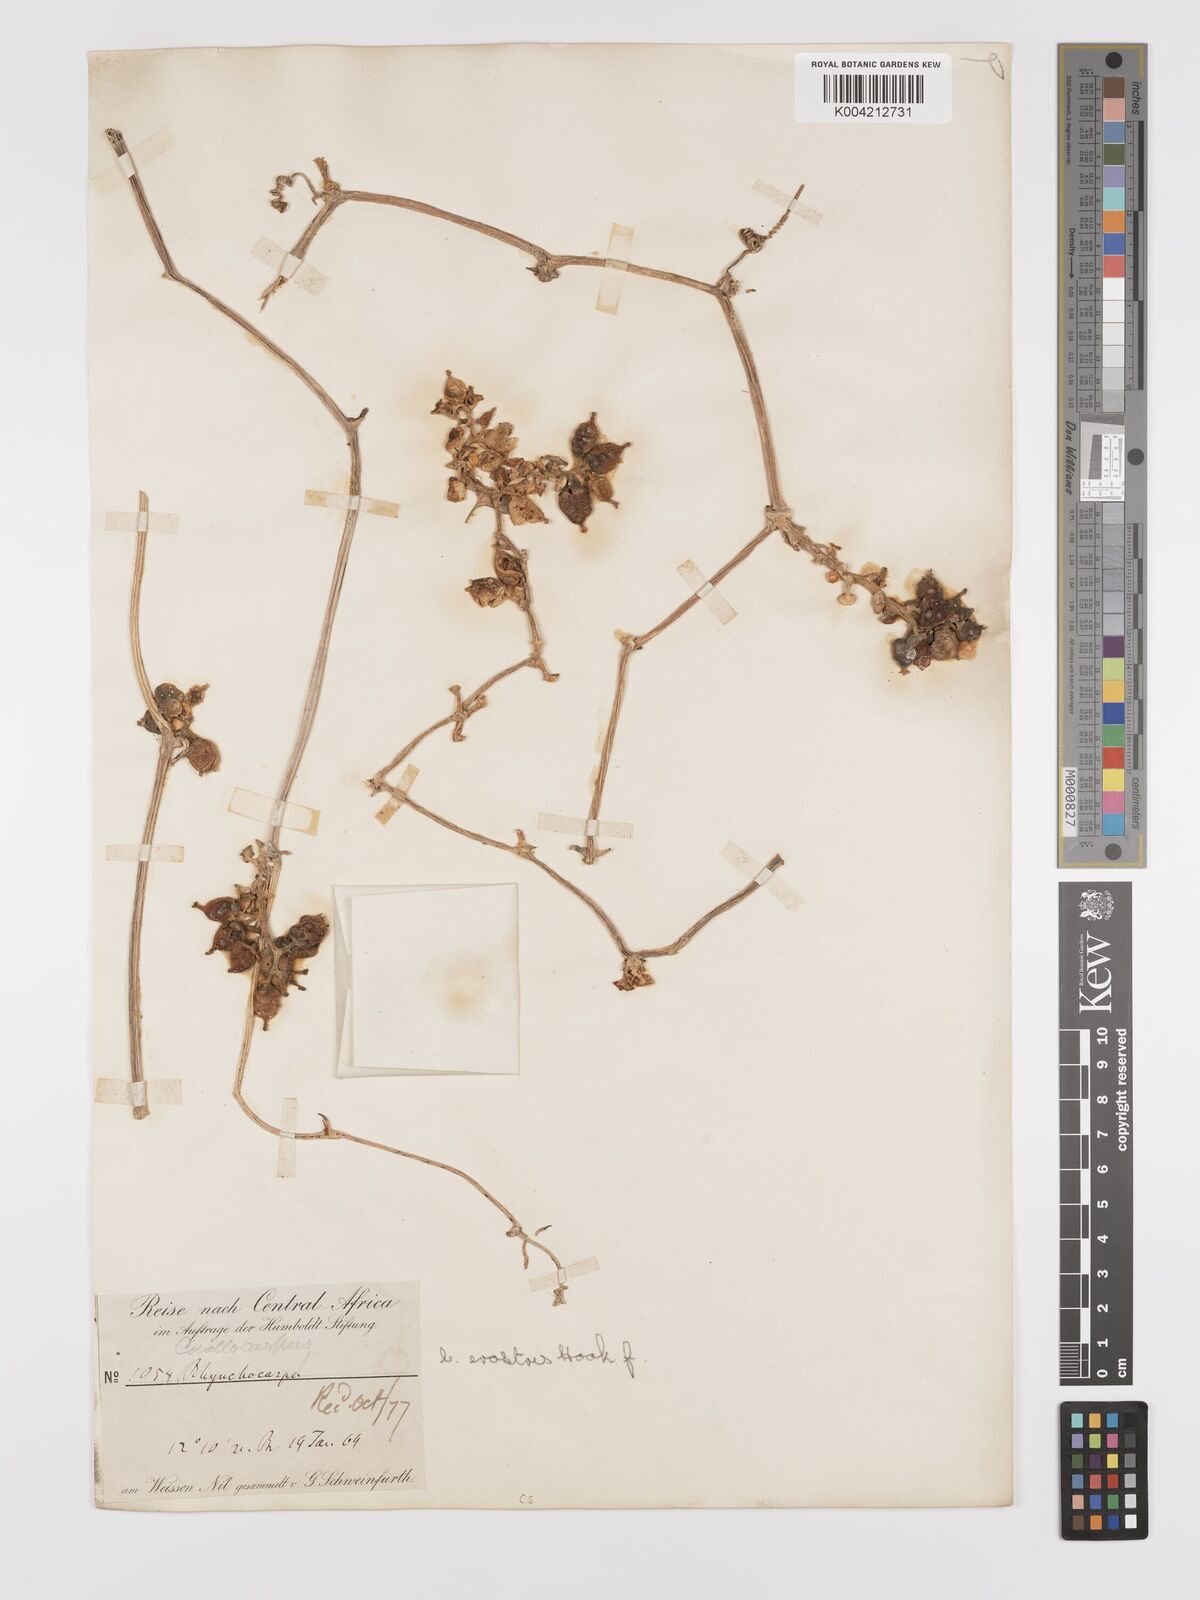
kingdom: Plantae
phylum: Tracheophyta
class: Magnoliopsida
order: Cucurbitales
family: Cucurbitaceae
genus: Corallocarpus
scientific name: Corallocarpus schimperi
